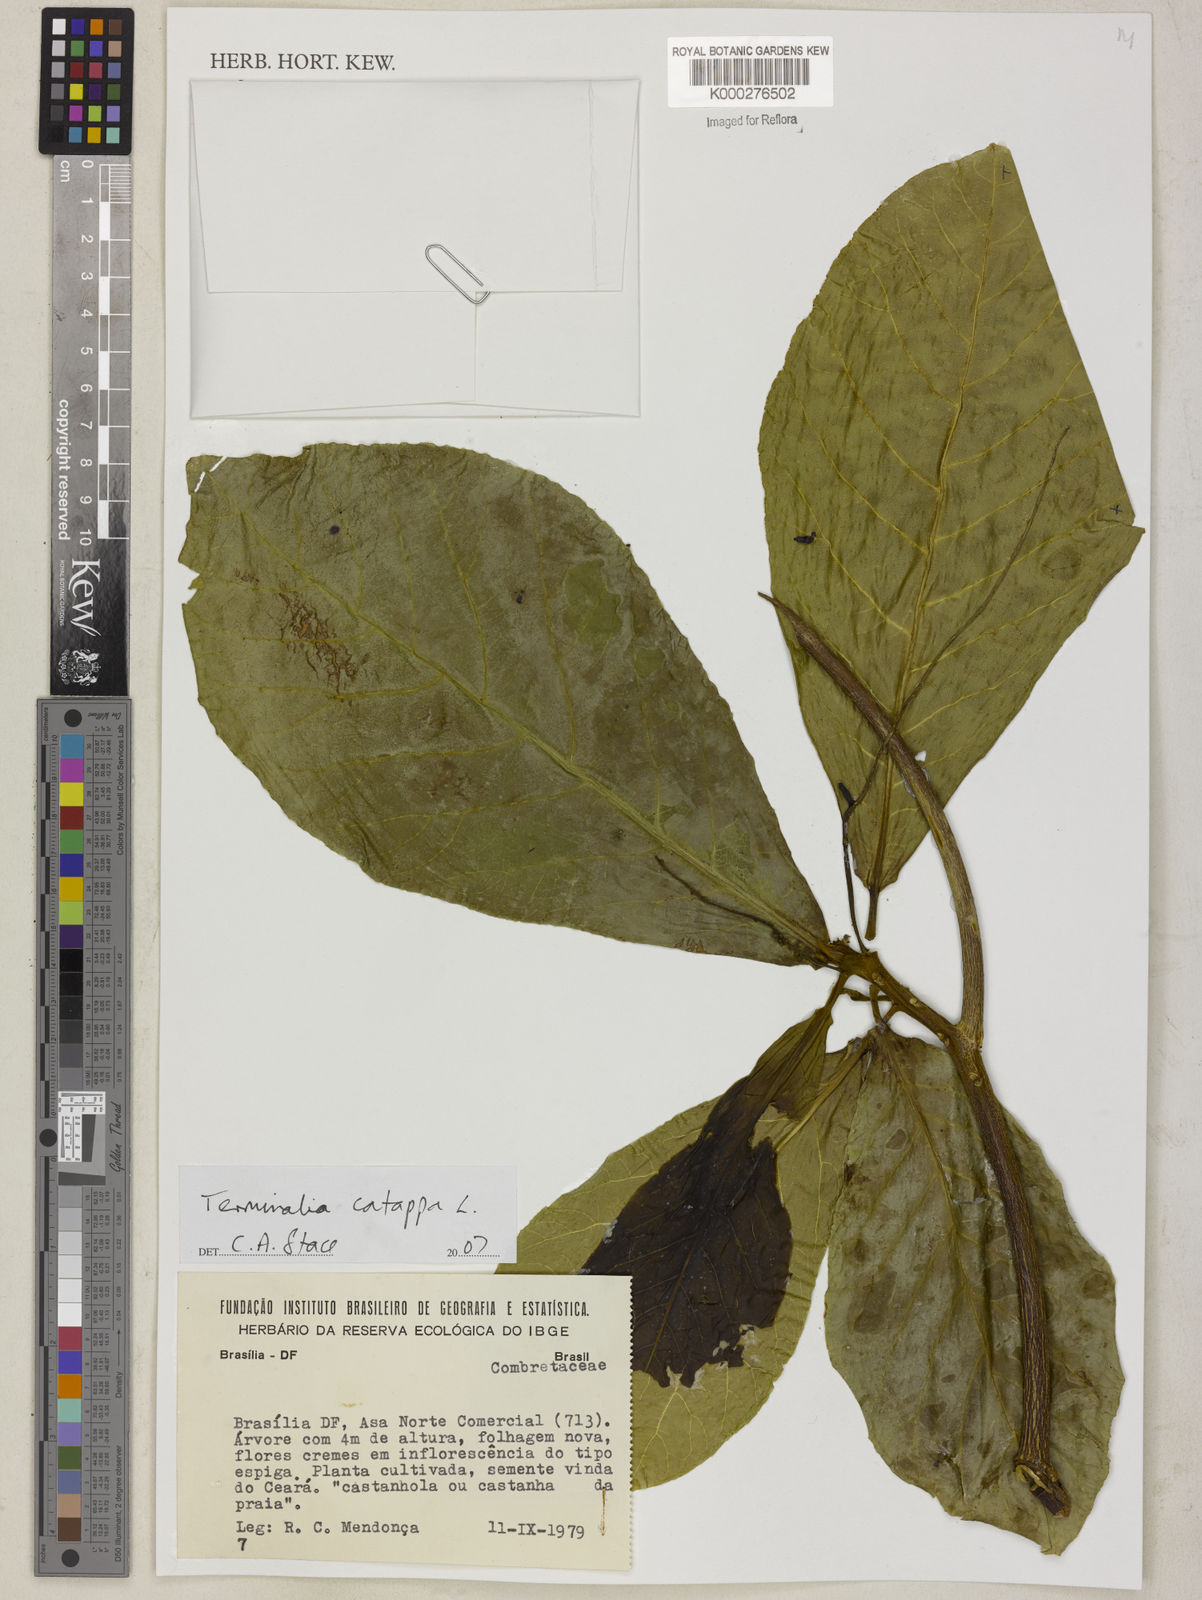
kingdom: Plantae
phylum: Tracheophyta
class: Magnoliopsida
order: Myrtales
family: Combretaceae
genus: Terminalia
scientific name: Terminalia catappa
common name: Tropical almond
